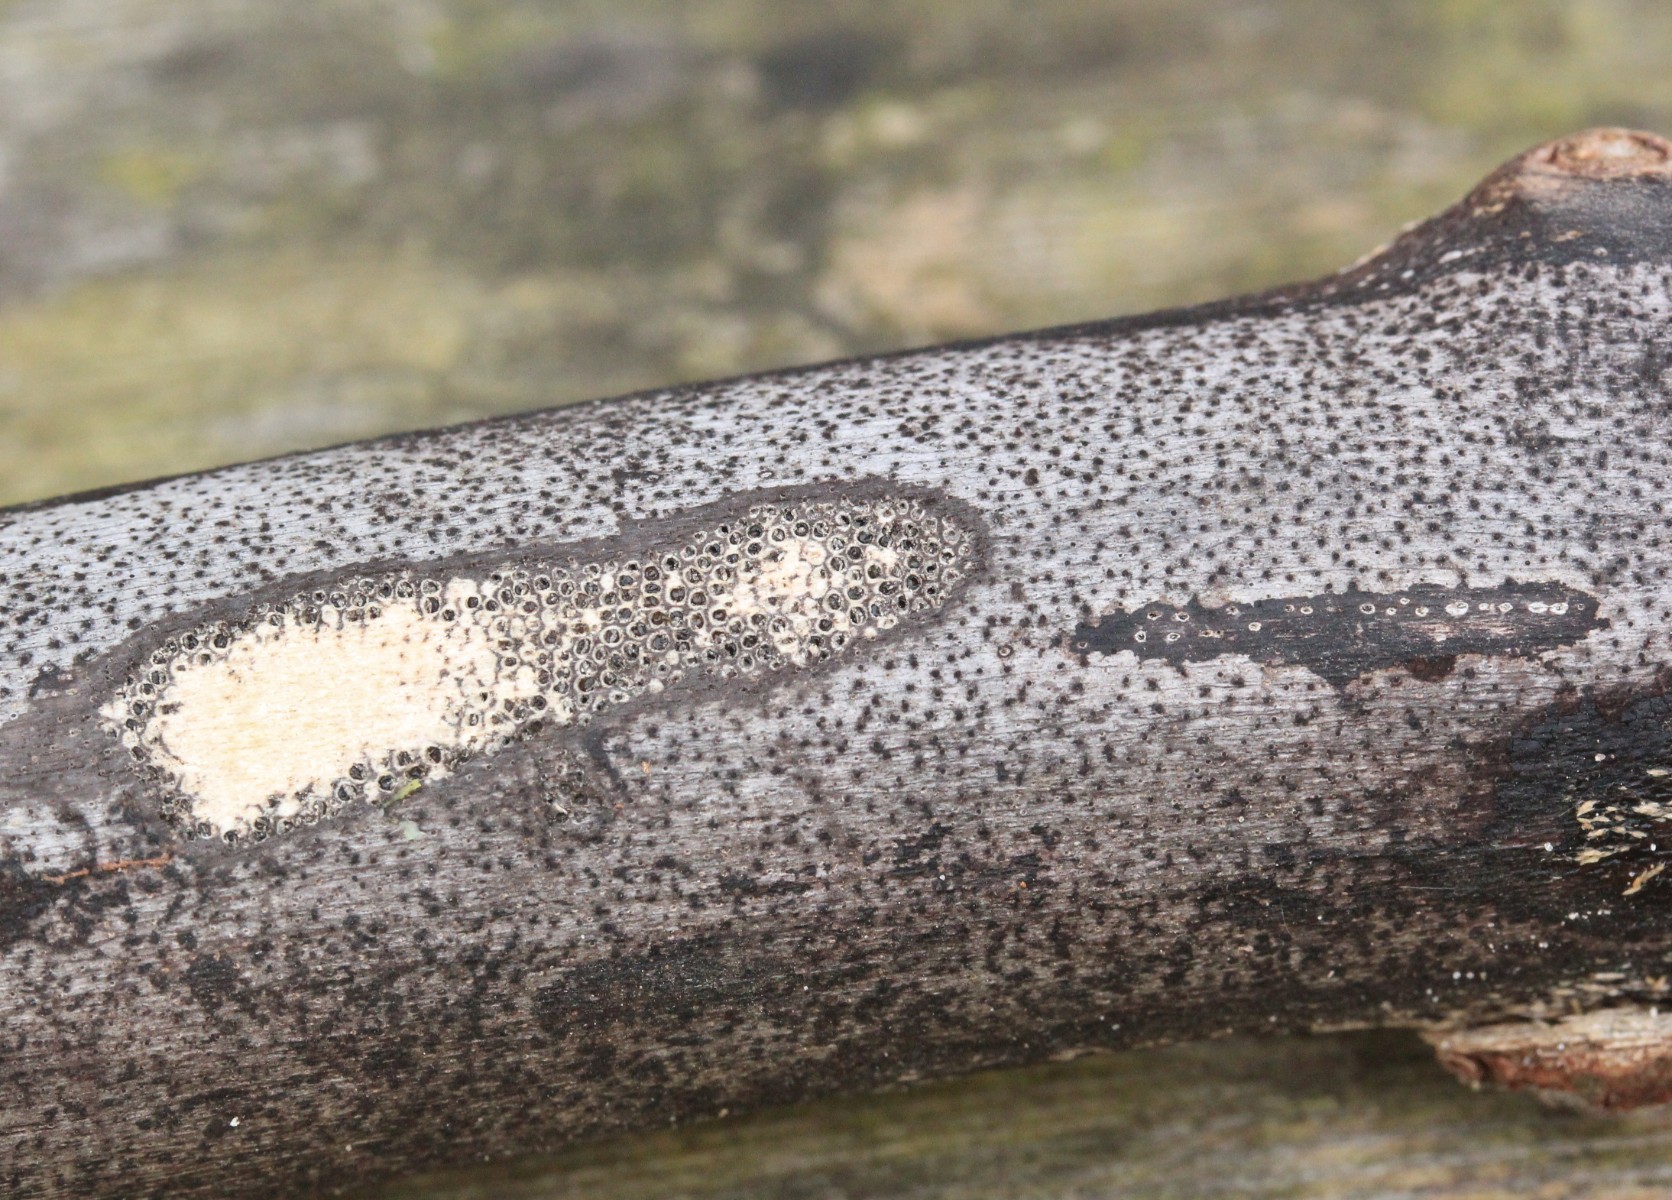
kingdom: Fungi
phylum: Ascomycota
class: Sordariomycetes
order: Xylariales
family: Diatrypaceae
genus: Eutypa
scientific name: Eutypa maura
